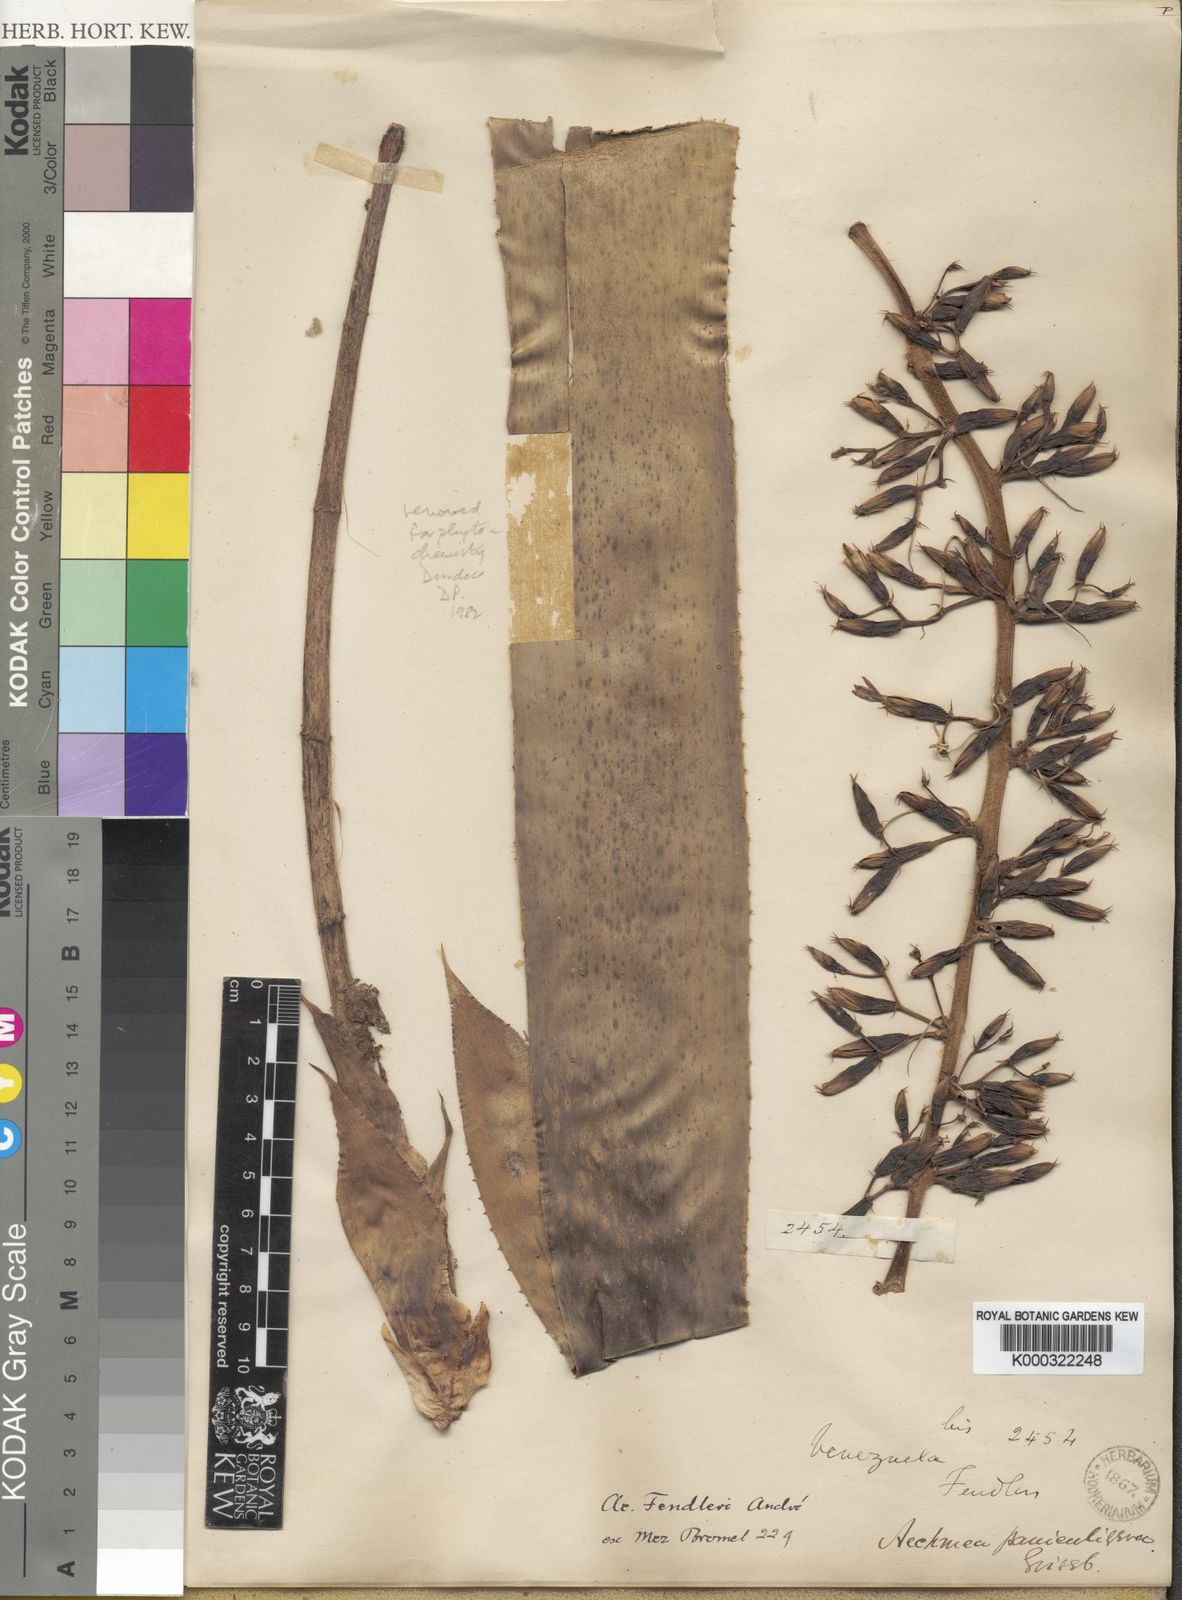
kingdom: Plantae
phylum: Tracheophyta
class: Liliopsida
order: Poales
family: Bromeliaceae
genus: Aechmea
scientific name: Aechmea
